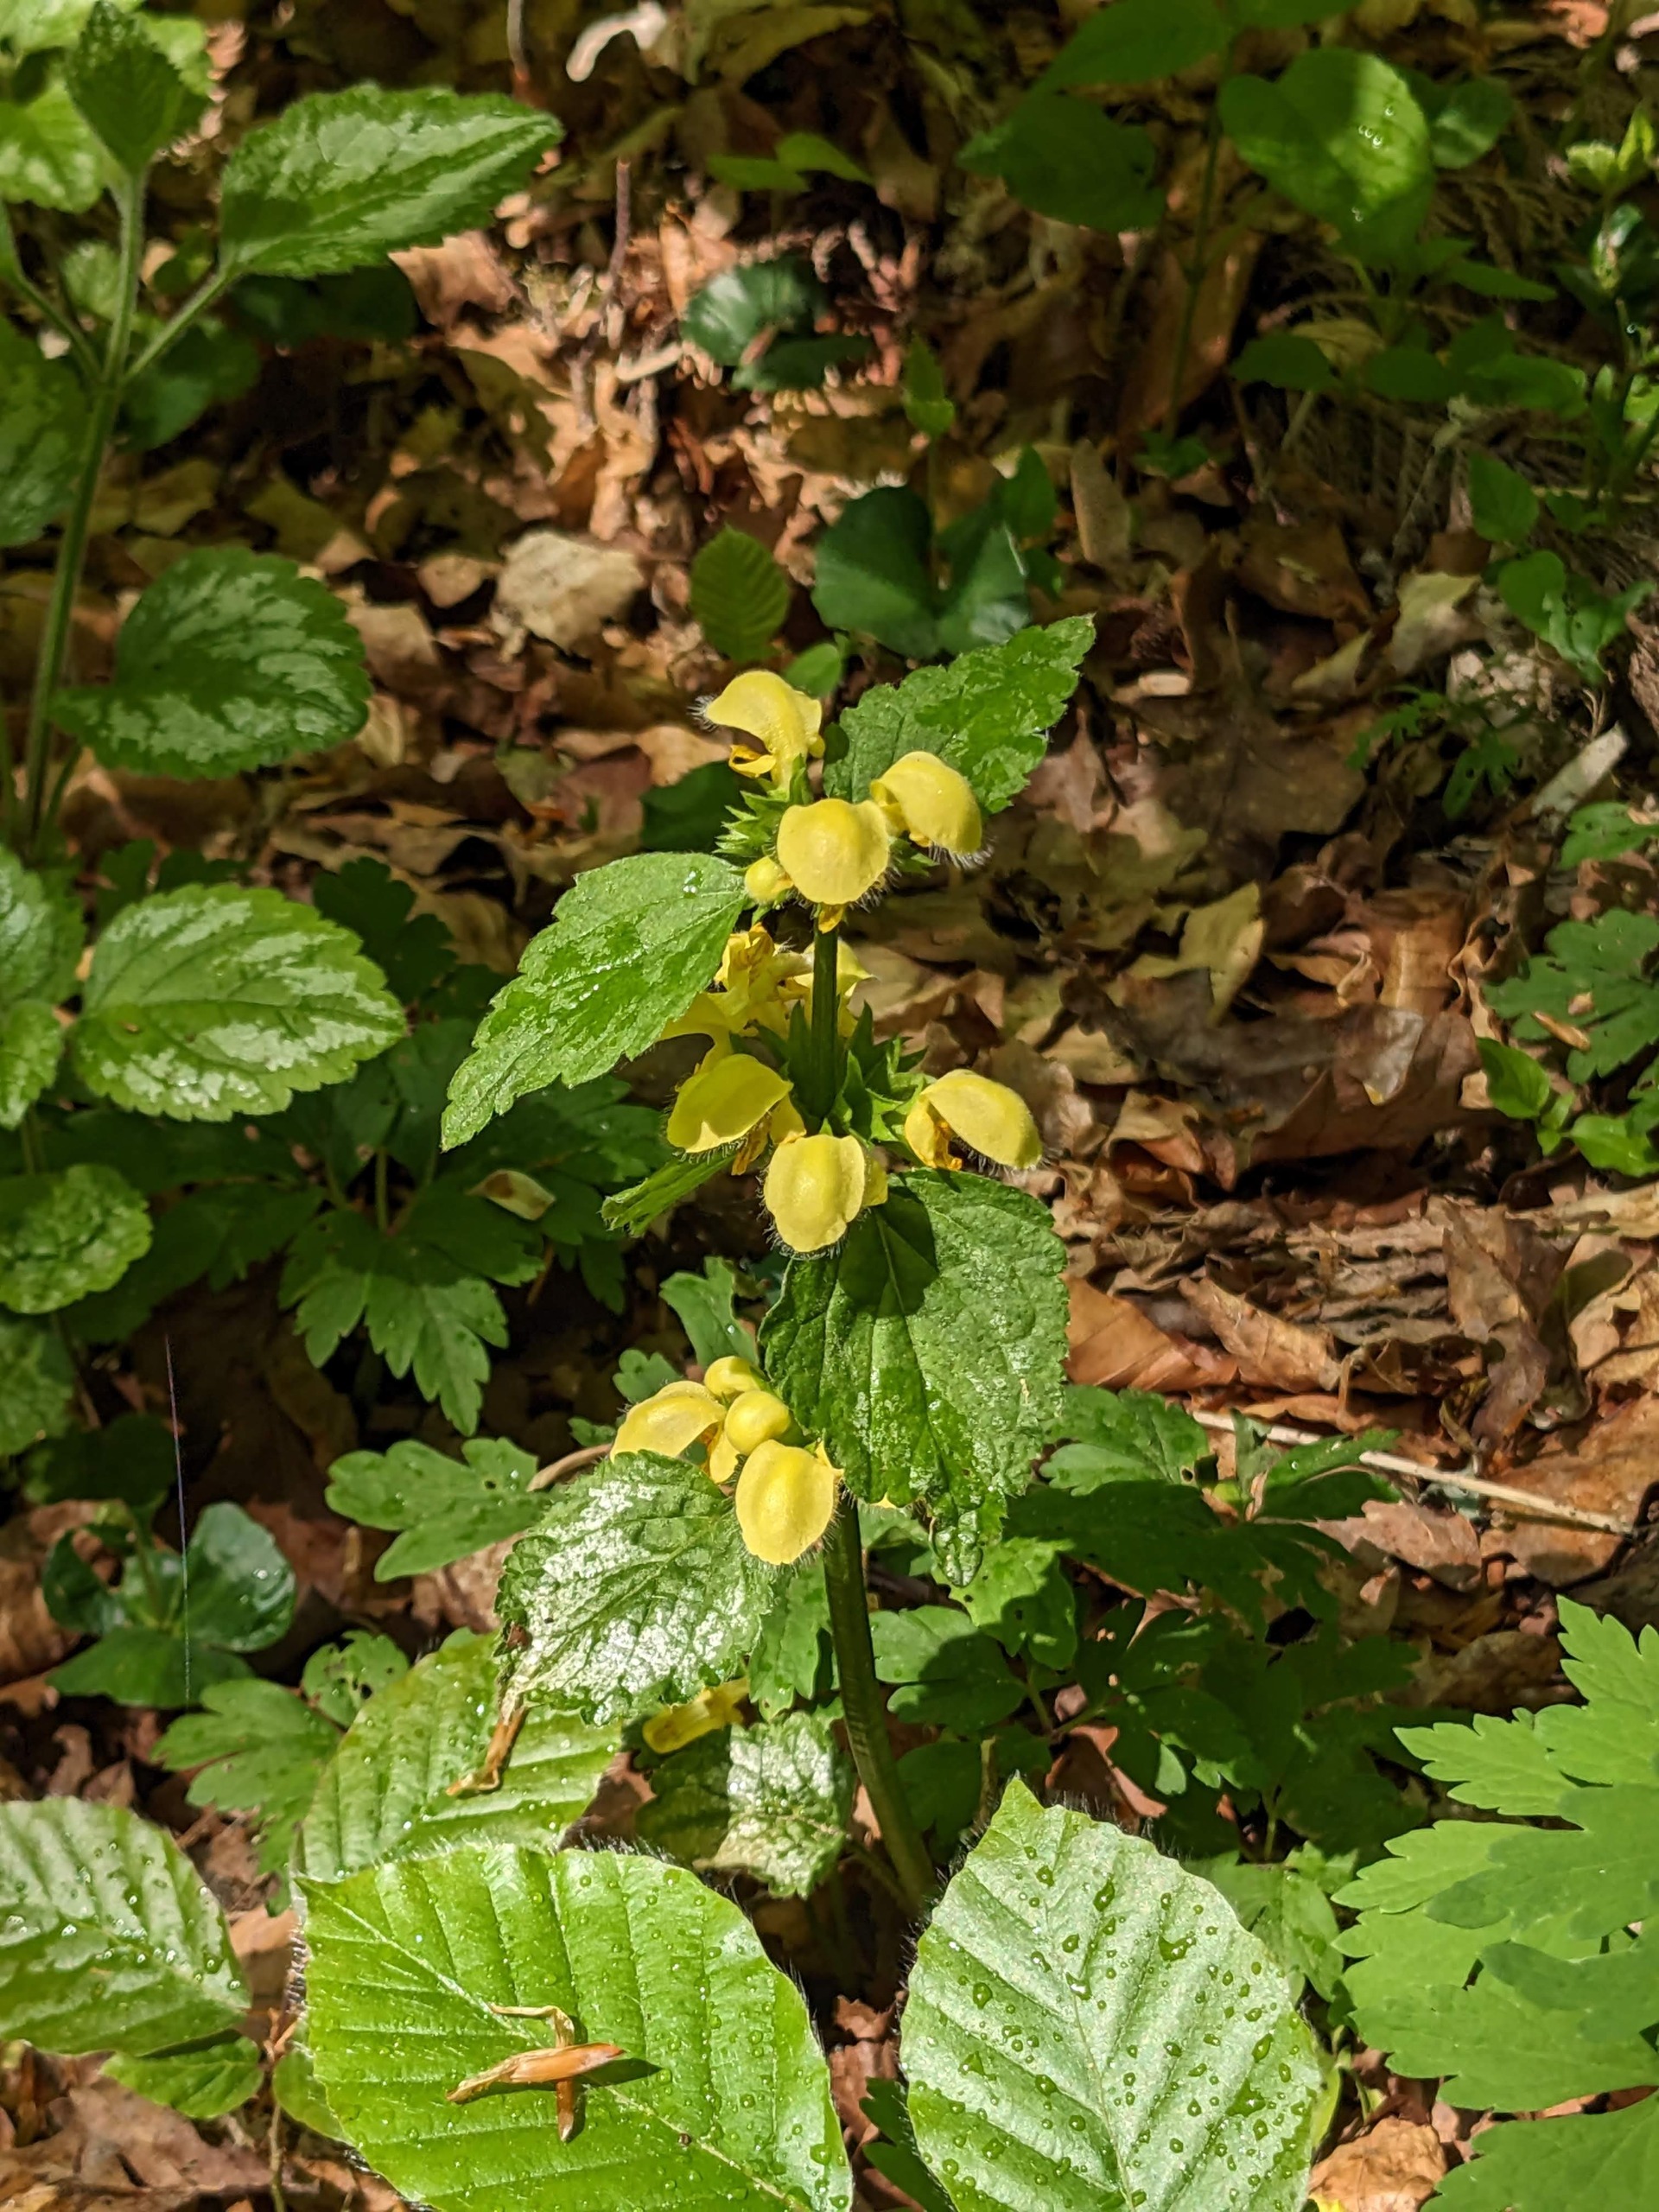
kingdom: Plantae
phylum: Tracheophyta
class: Magnoliopsida
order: Lamiales
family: Lamiaceae
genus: Lamium
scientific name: Lamium galeobdolon
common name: Have-guldnælde
